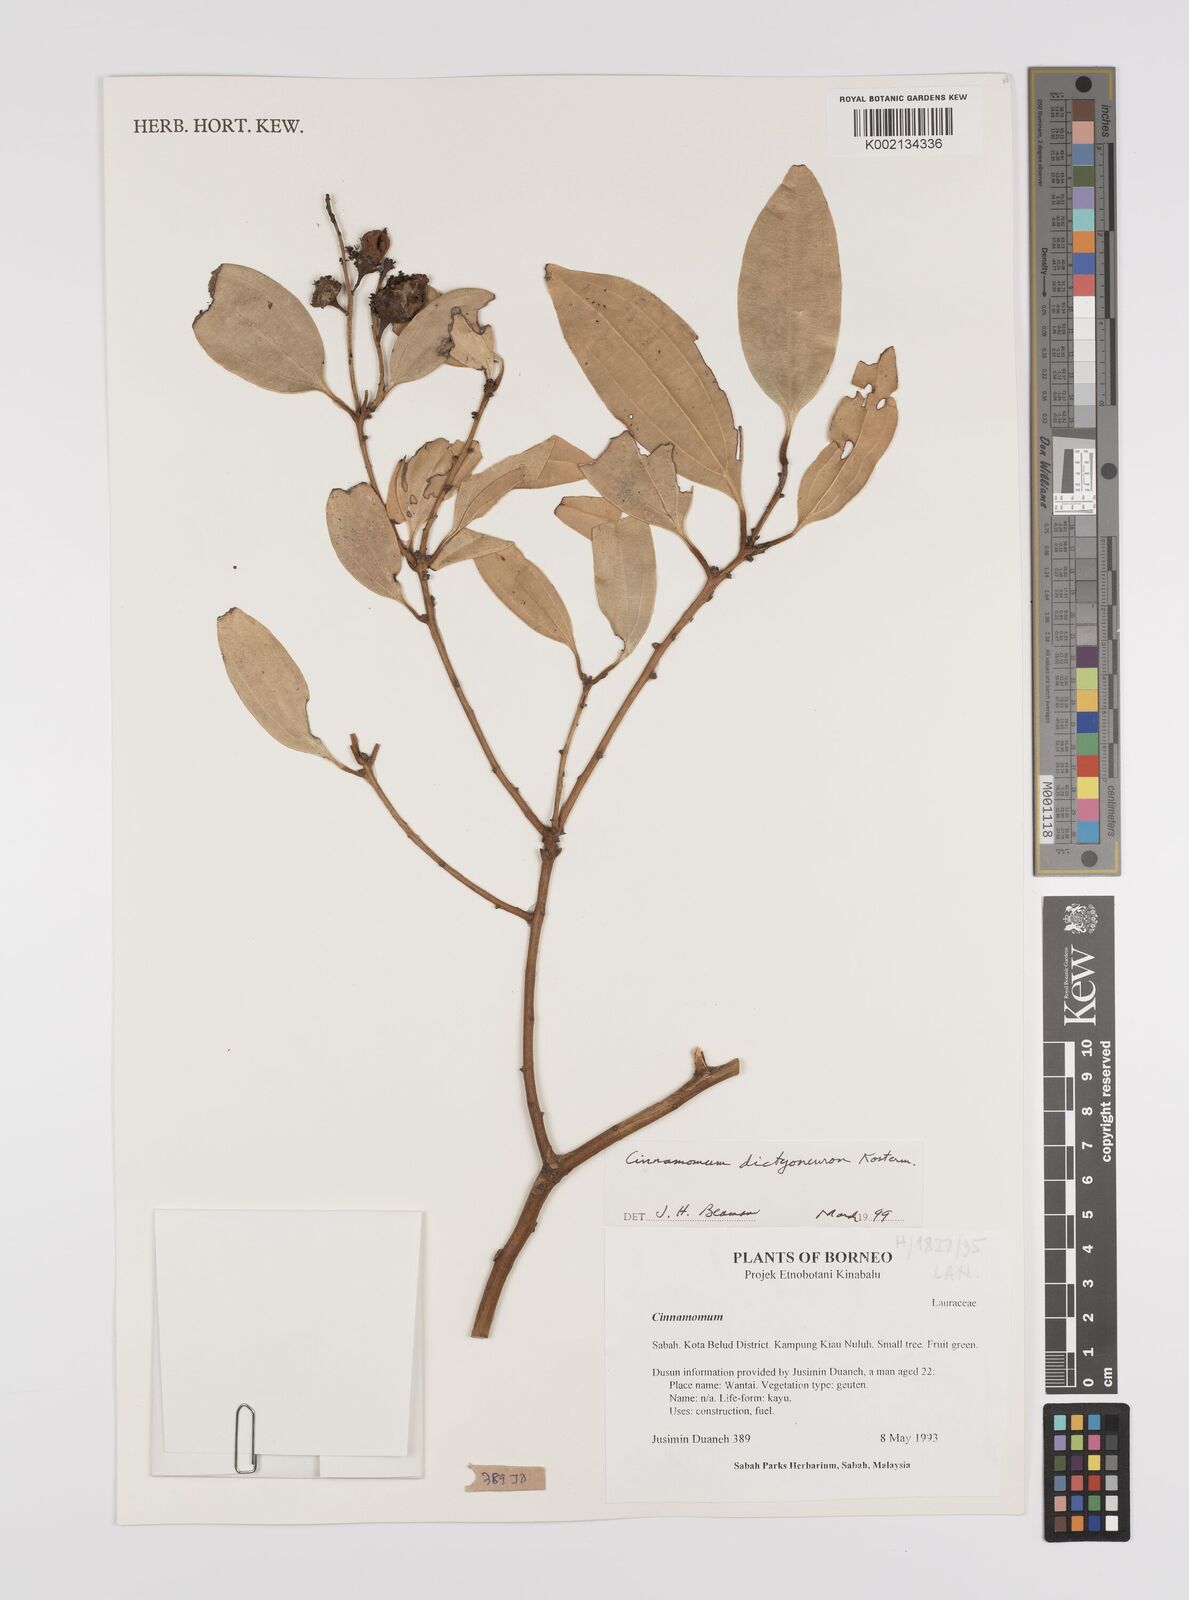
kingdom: Plantae
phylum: Tracheophyta
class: Magnoliopsida
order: Laurales
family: Lauraceae
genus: Cinnamomum
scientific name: Cinnamomum racemosum
